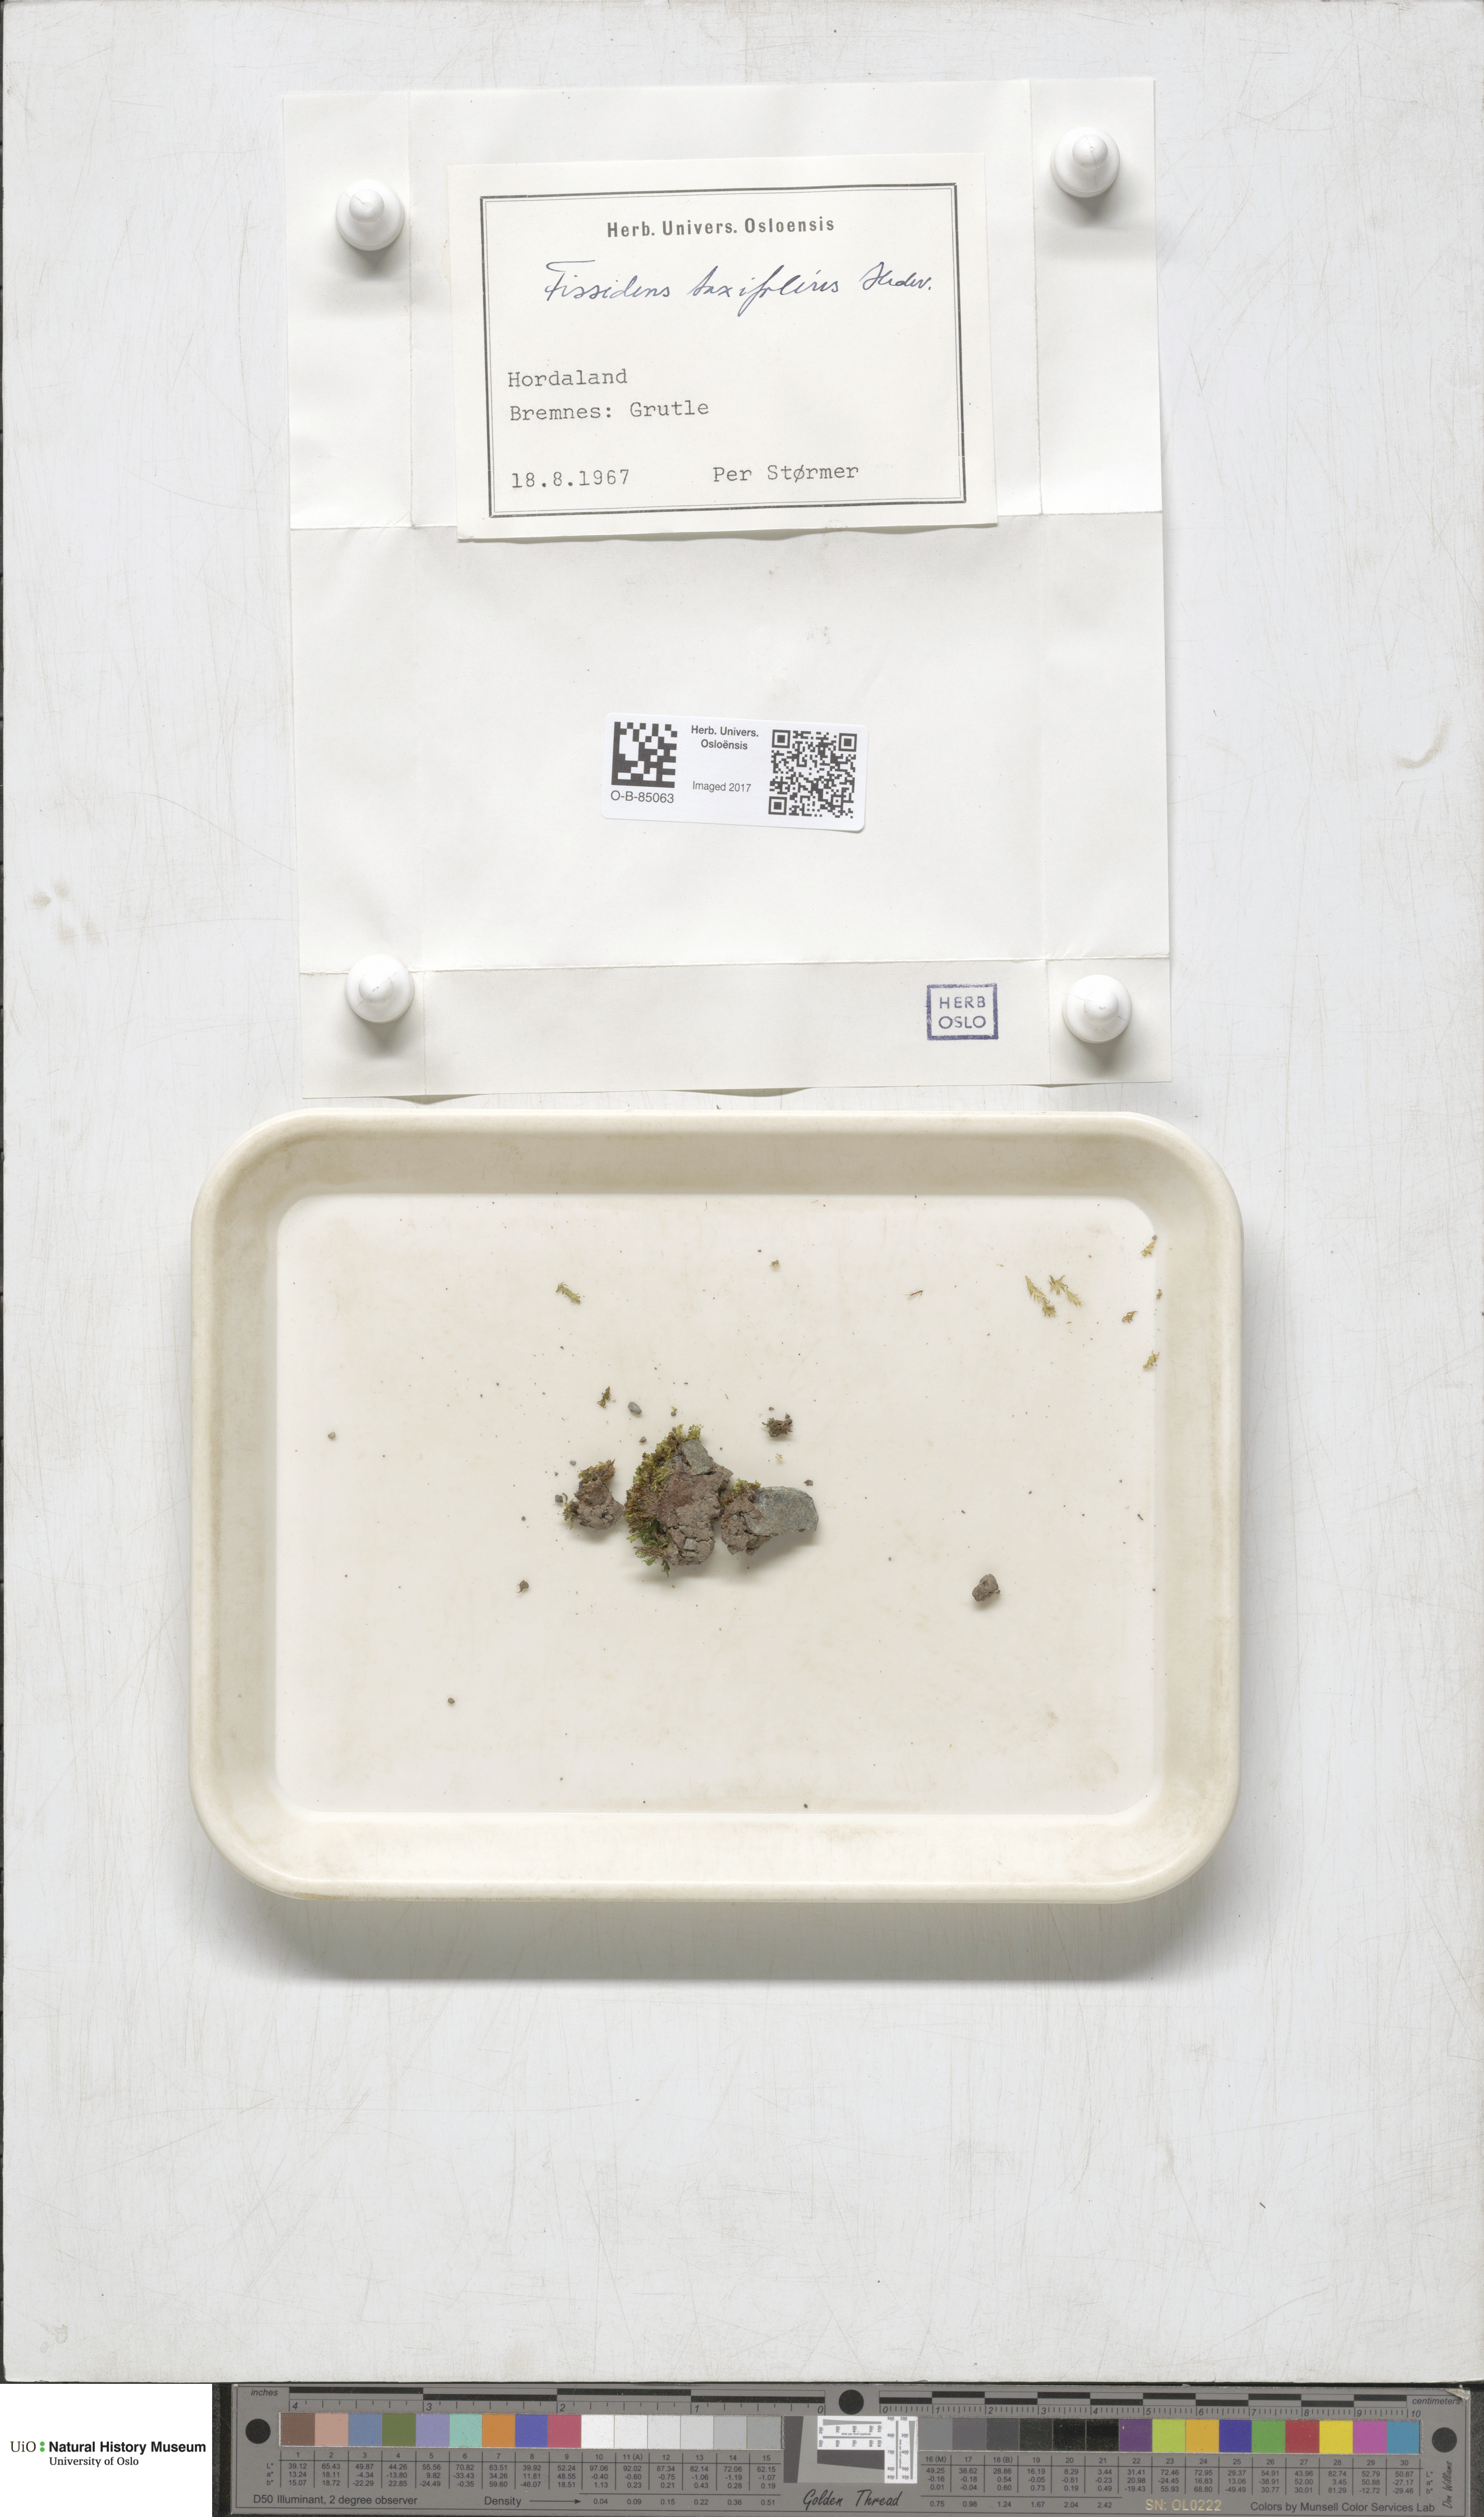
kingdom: Plantae
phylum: Bryophyta
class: Bryopsida
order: Dicranales
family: Fissidentaceae
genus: Fissidens
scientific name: Fissidens taxifolius
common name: Yew-leaved pocket moss
